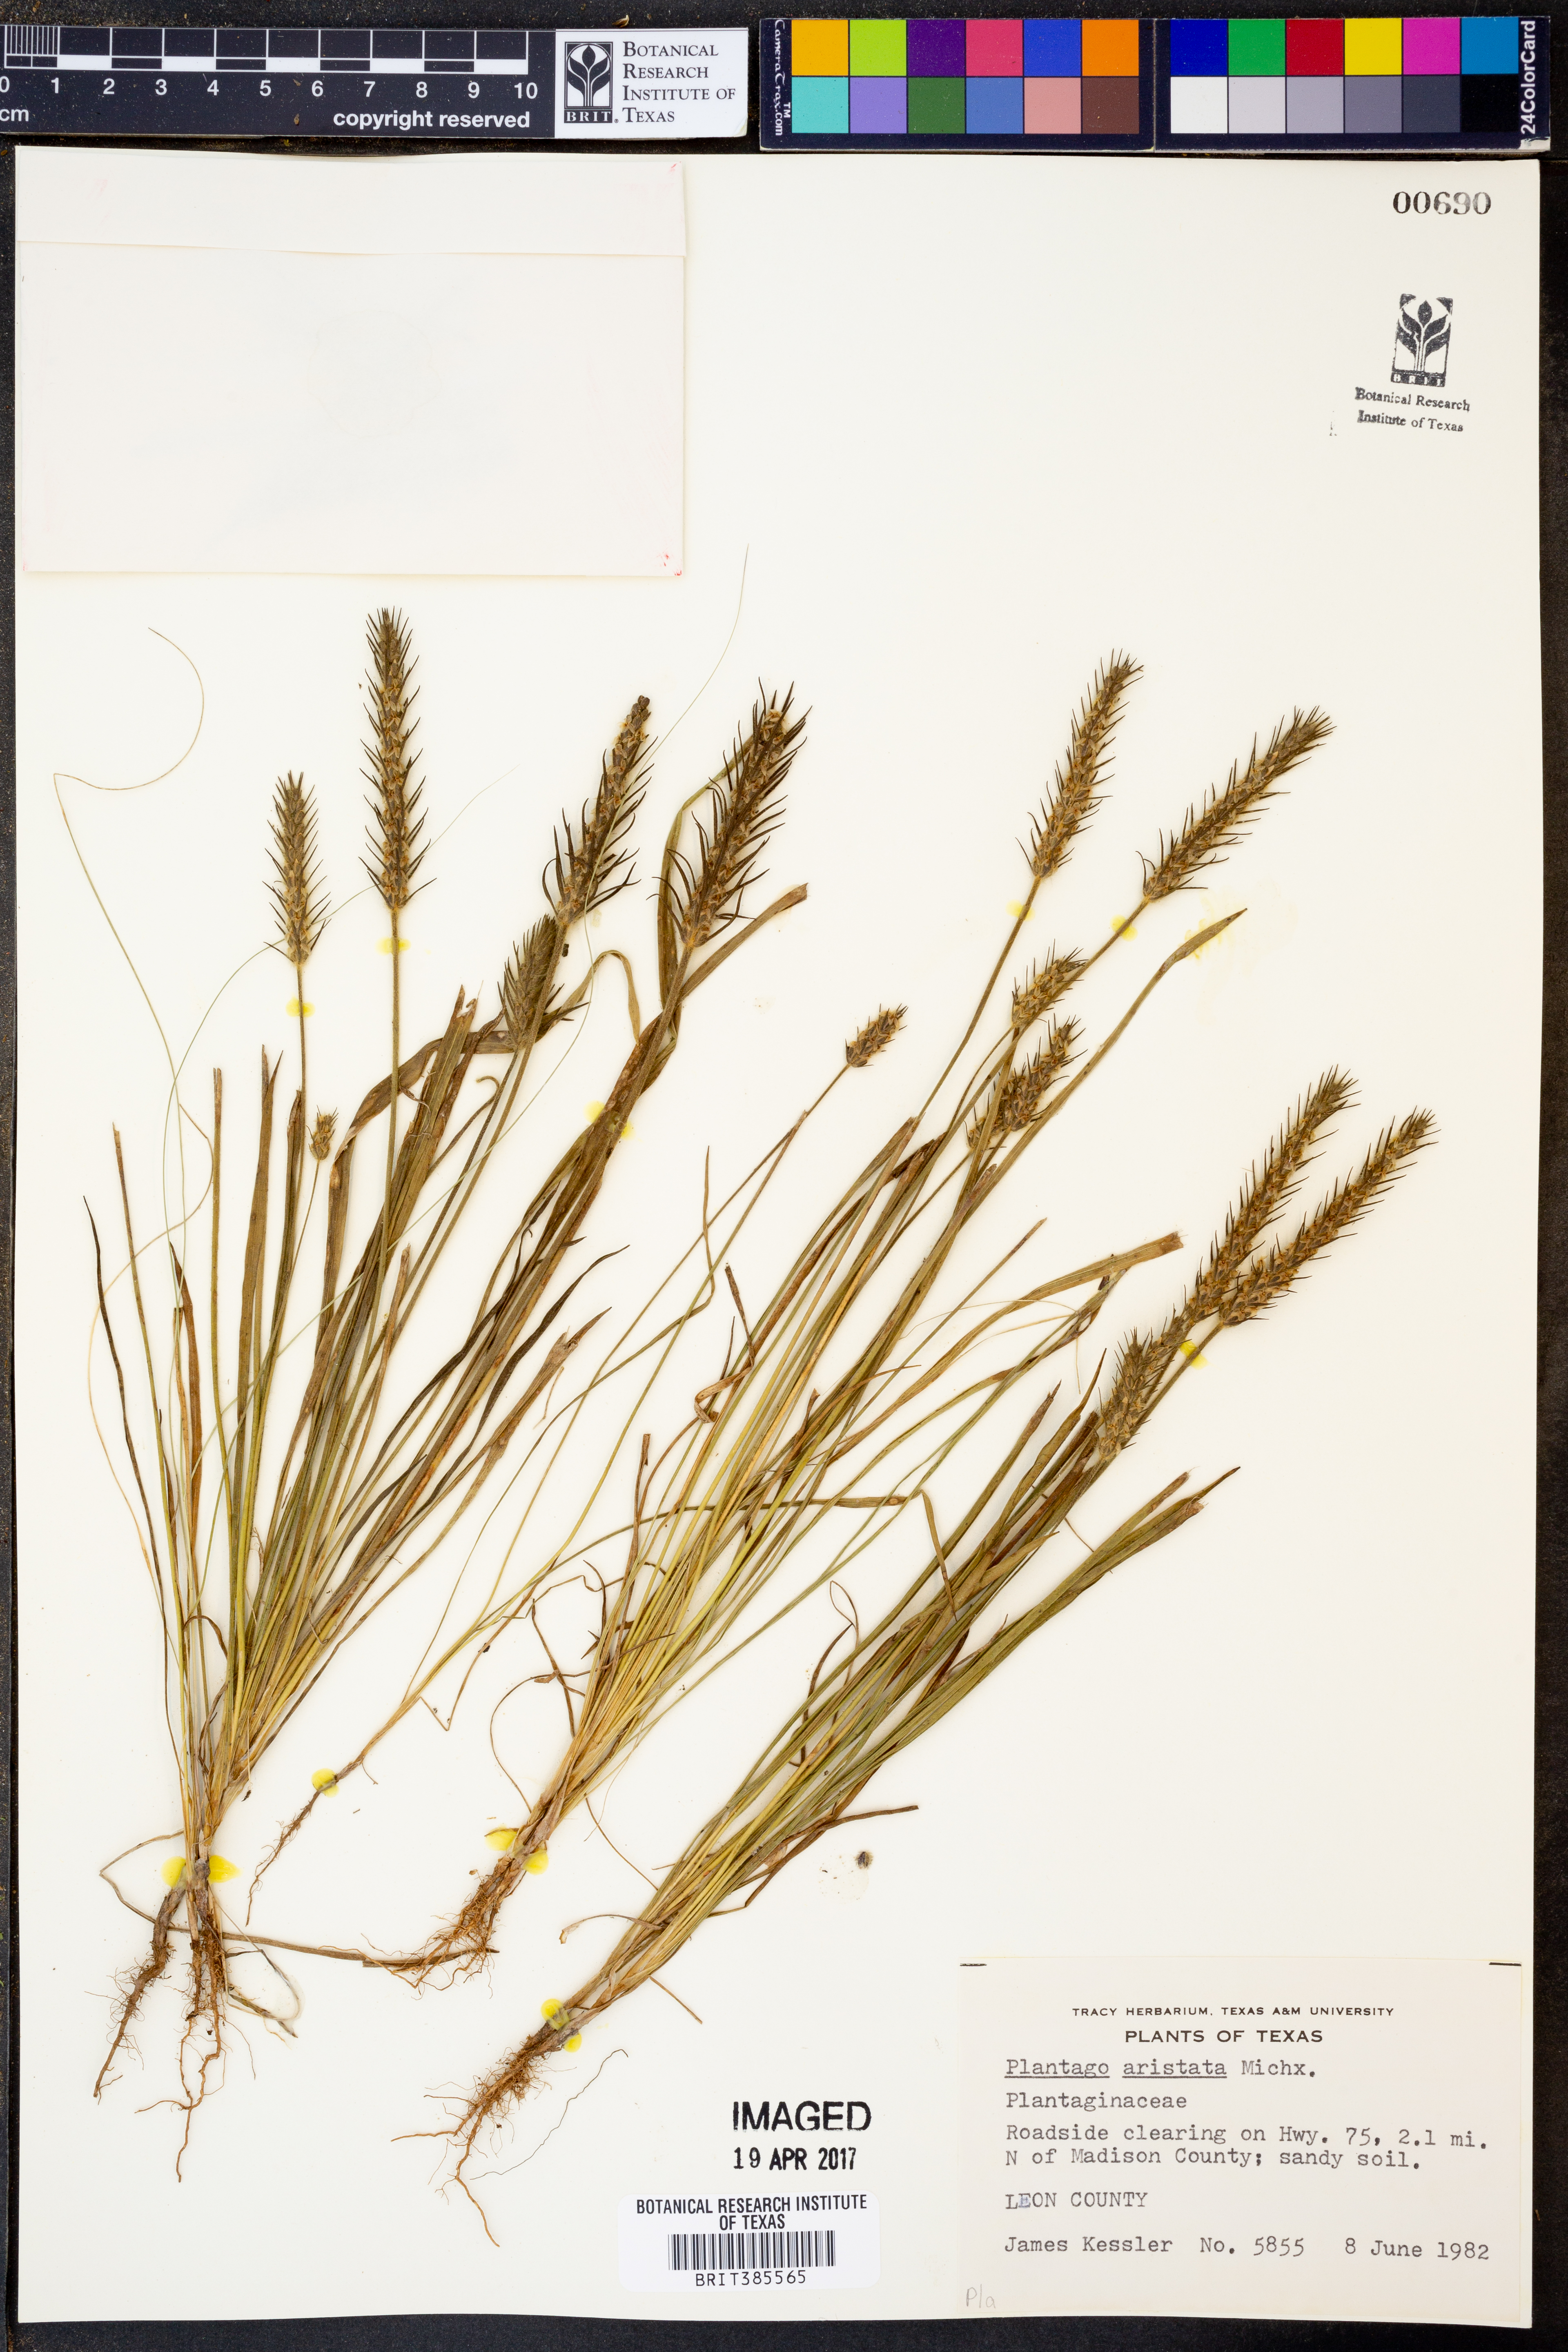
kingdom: Plantae
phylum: Tracheophyta
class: Magnoliopsida
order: Lamiales
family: Plantaginaceae
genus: Plantago
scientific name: Plantago aristata
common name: Bracted plantain
